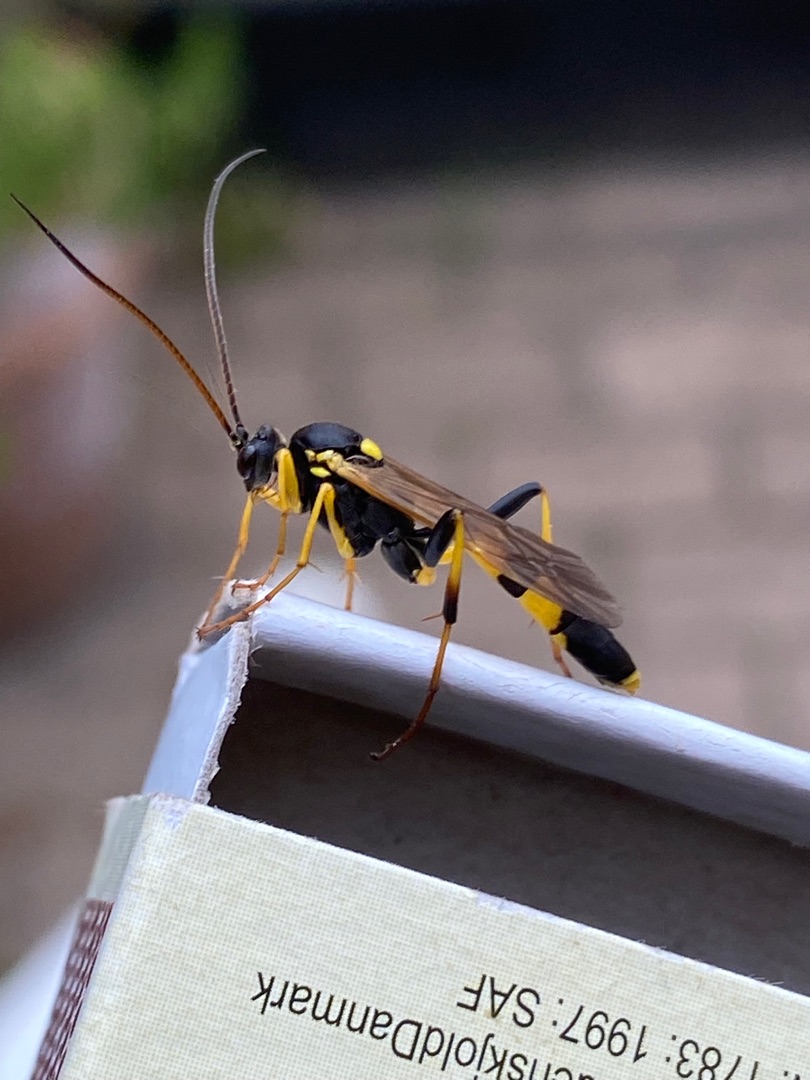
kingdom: Animalia
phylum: Arthropoda
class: Insecta
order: Hymenoptera
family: Ichneumonidae
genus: Amblyteles
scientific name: Amblyteles armatorius
